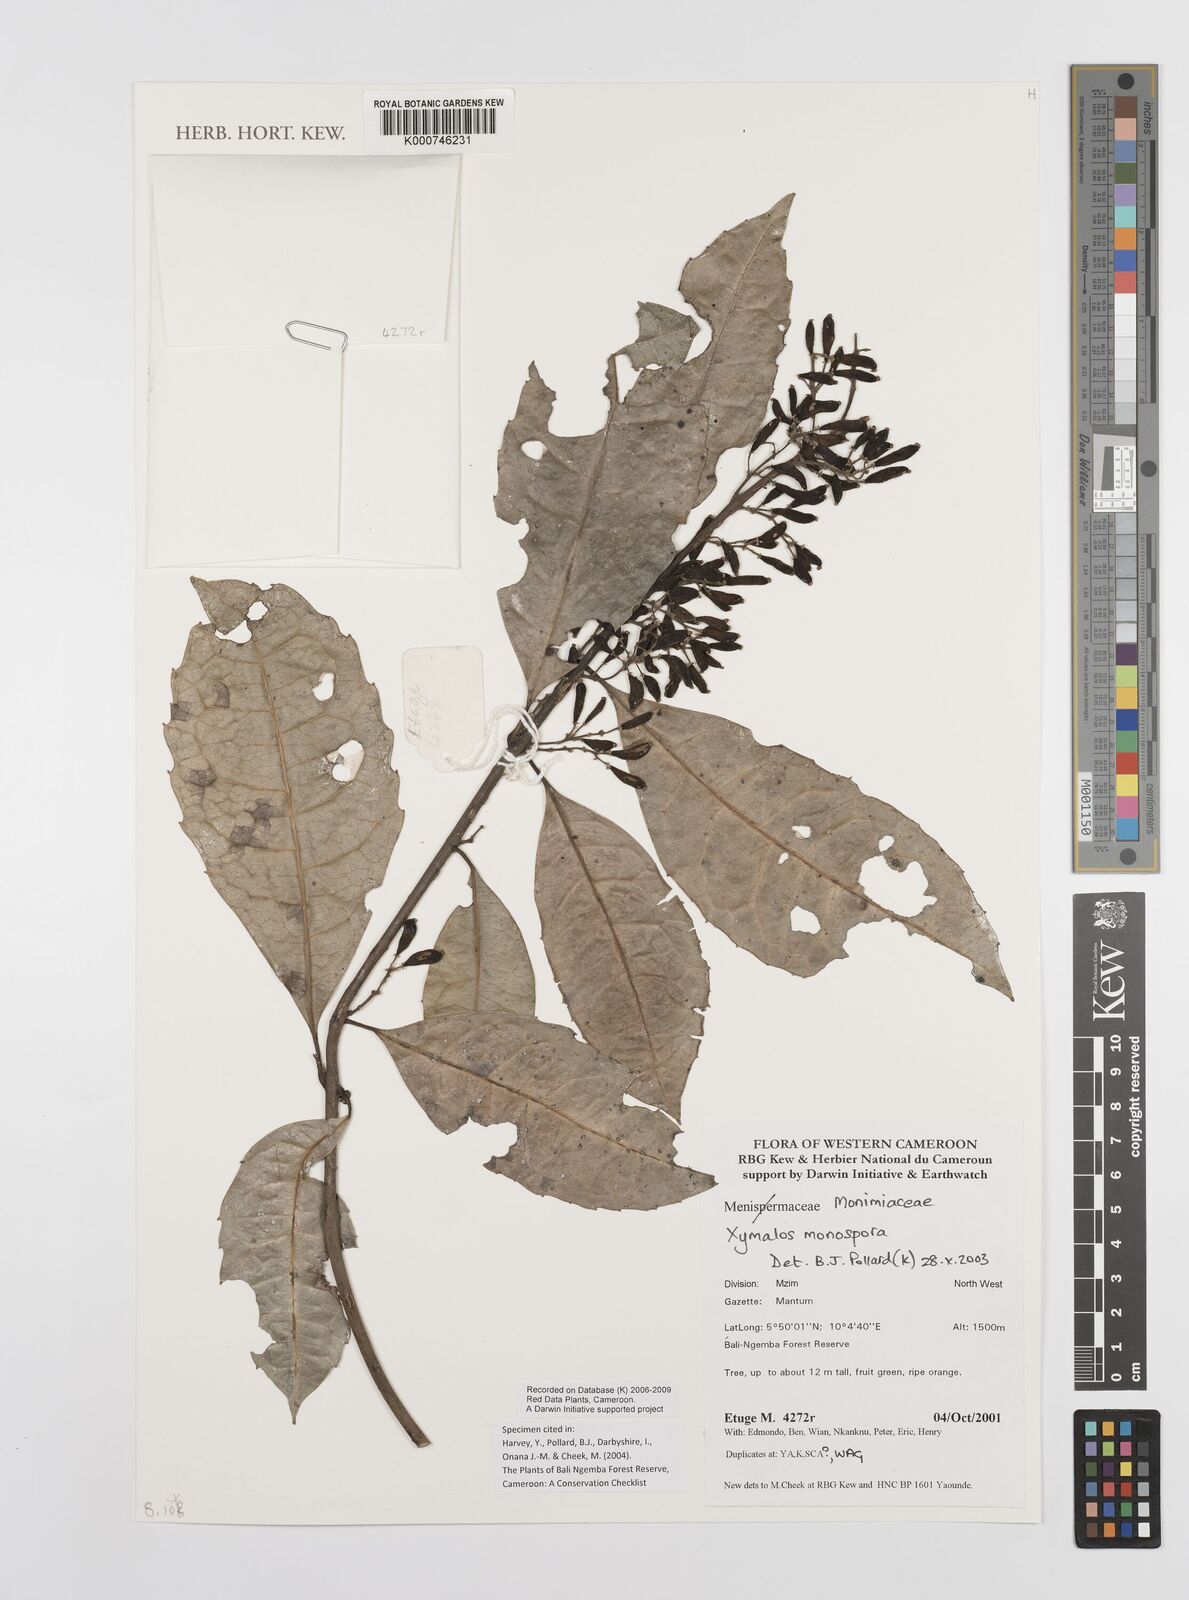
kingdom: Plantae
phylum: Tracheophyta
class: Magnoliopsida
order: Laurales
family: Monimiaceae
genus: Xymalos
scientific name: Xymalos
